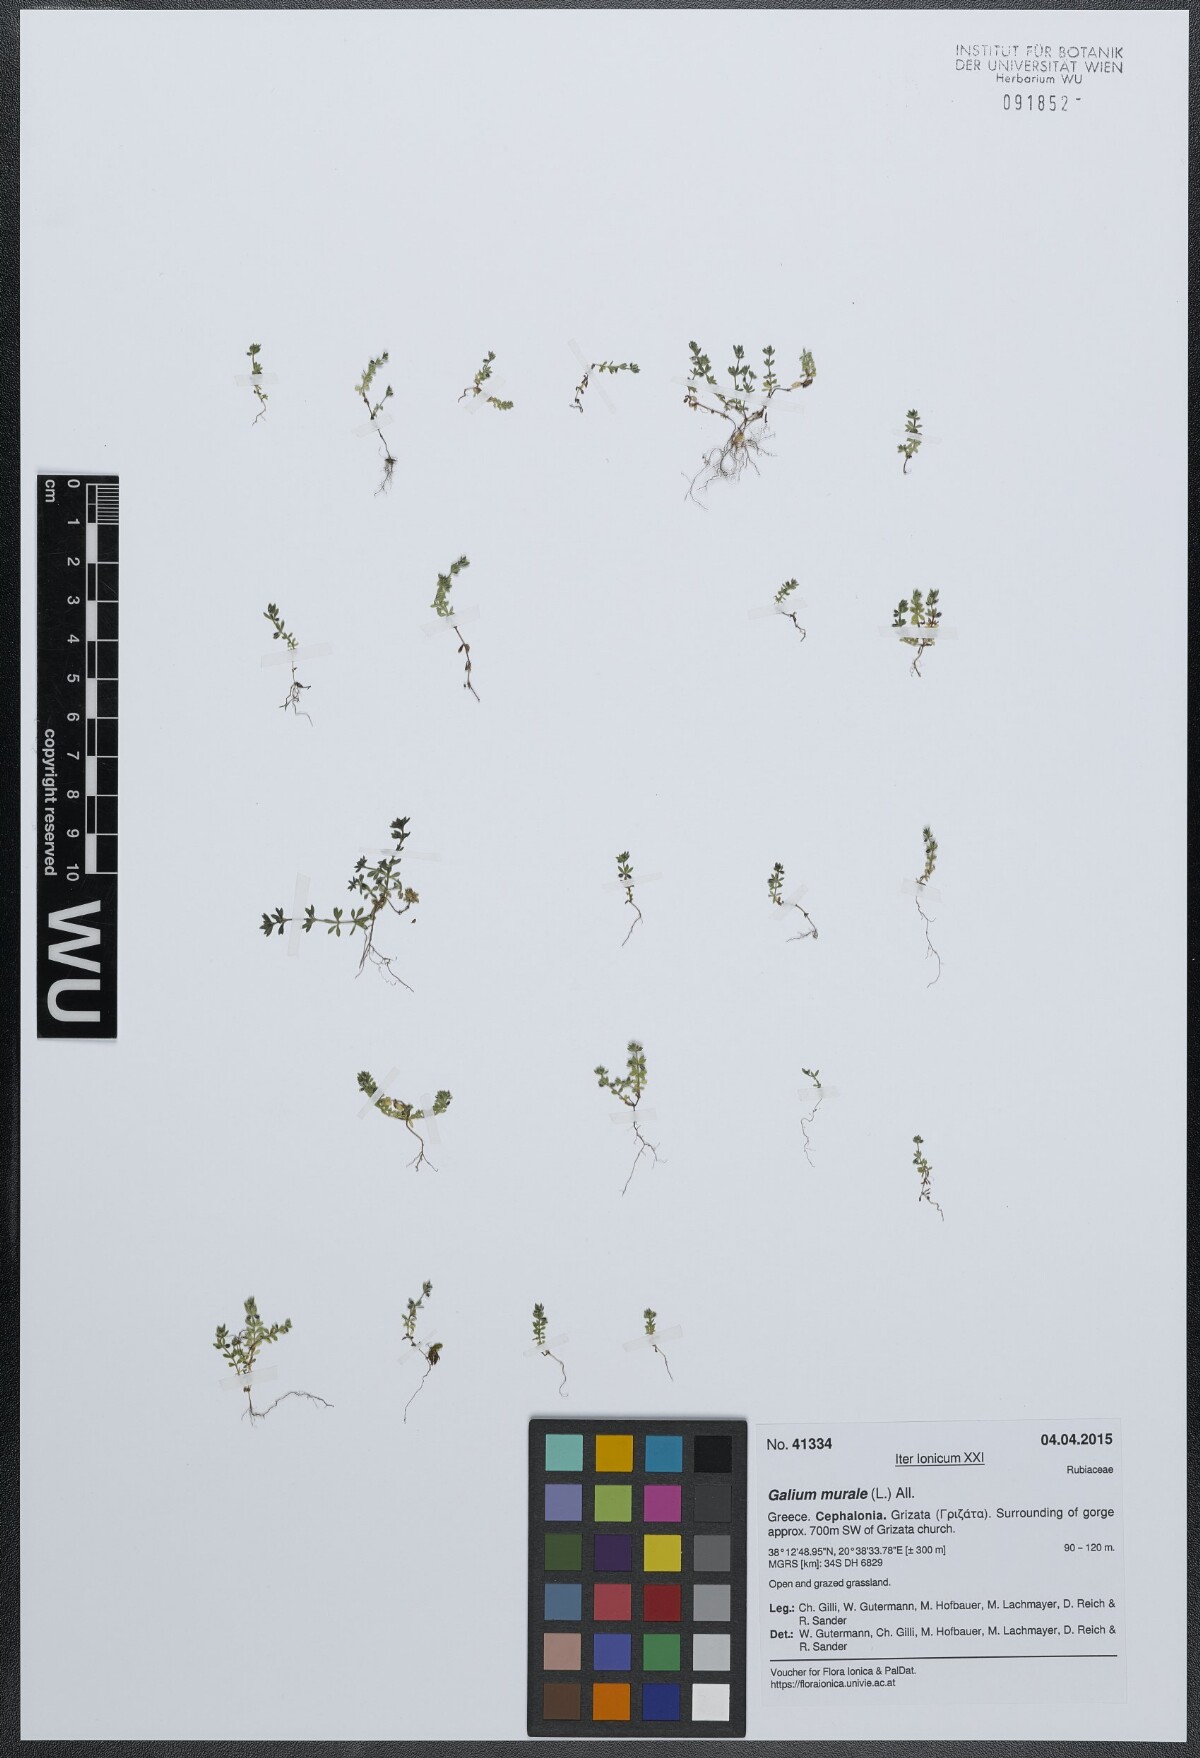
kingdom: Plantae
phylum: Tracheophyta
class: Magnoliopsida
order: Gentianales
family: Rubiaceae
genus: Galium
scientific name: Galium murale
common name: Yellow wall bedstraw
